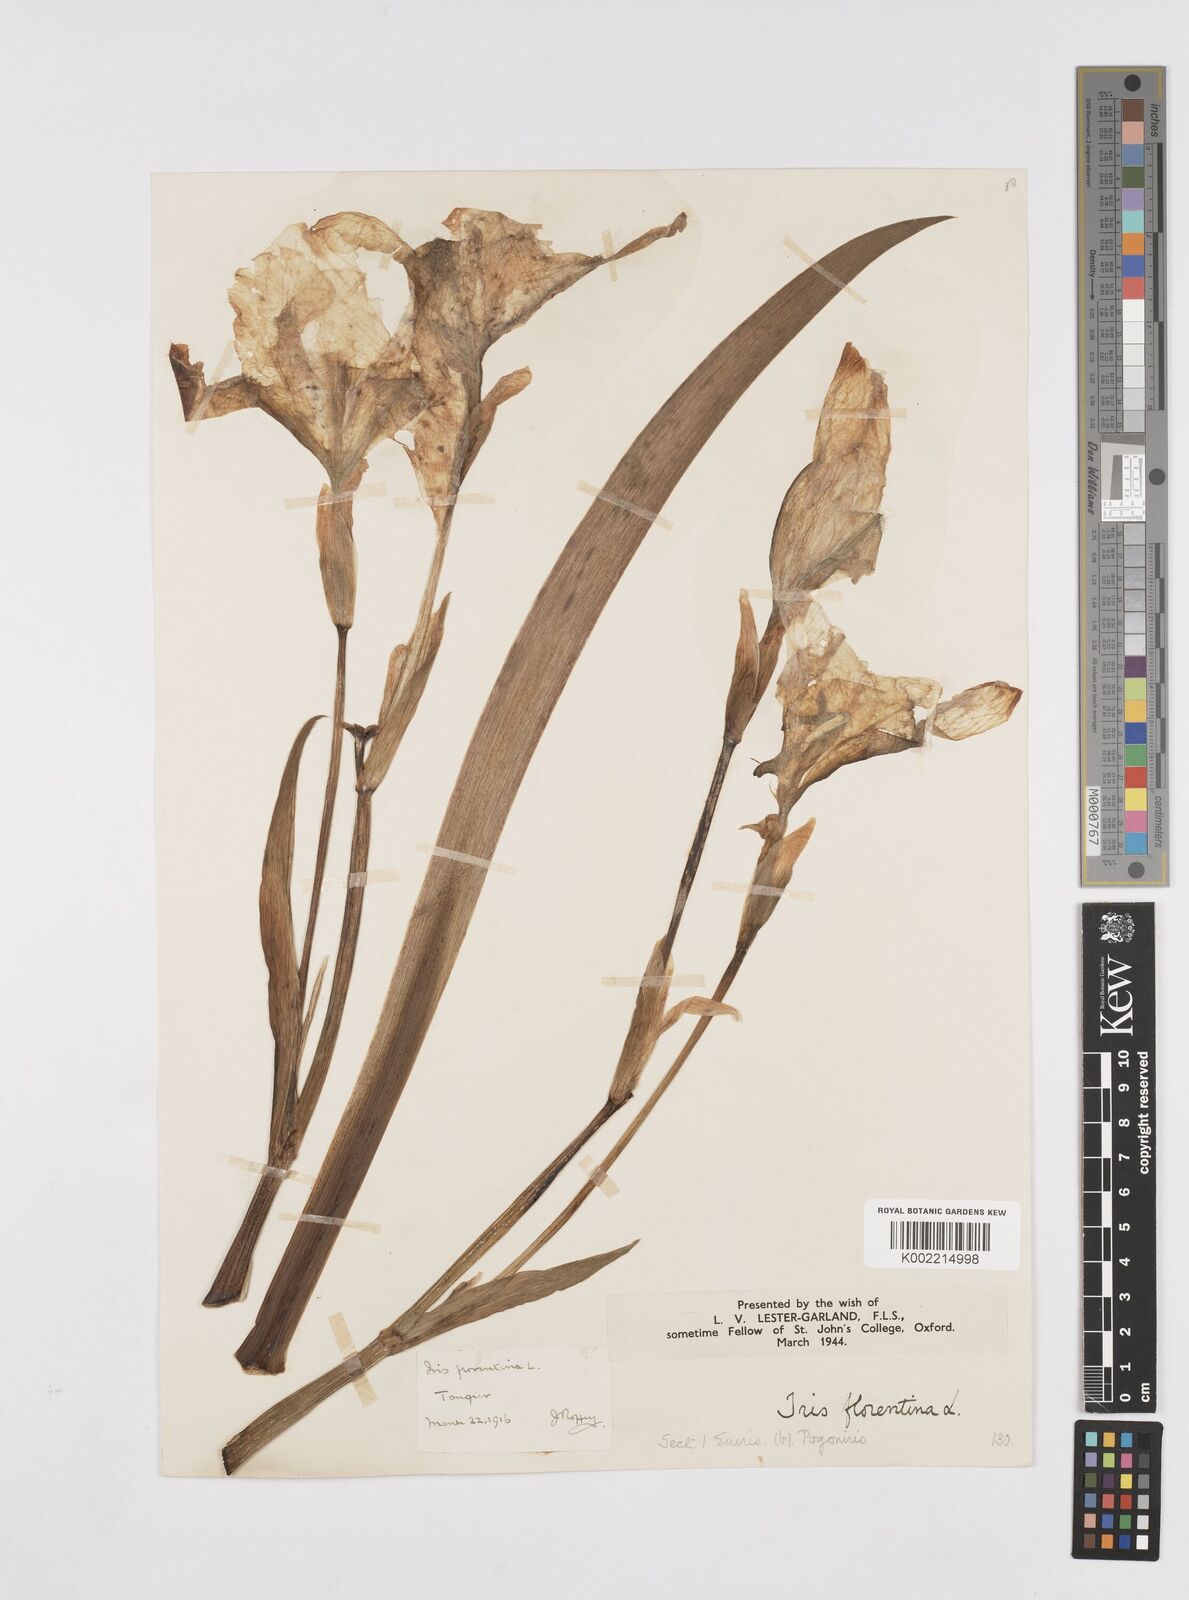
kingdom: Plantae
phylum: Tracheophyta
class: Liliopsida
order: Asparagales
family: Iridaceae
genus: Iris
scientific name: Iris florentina
